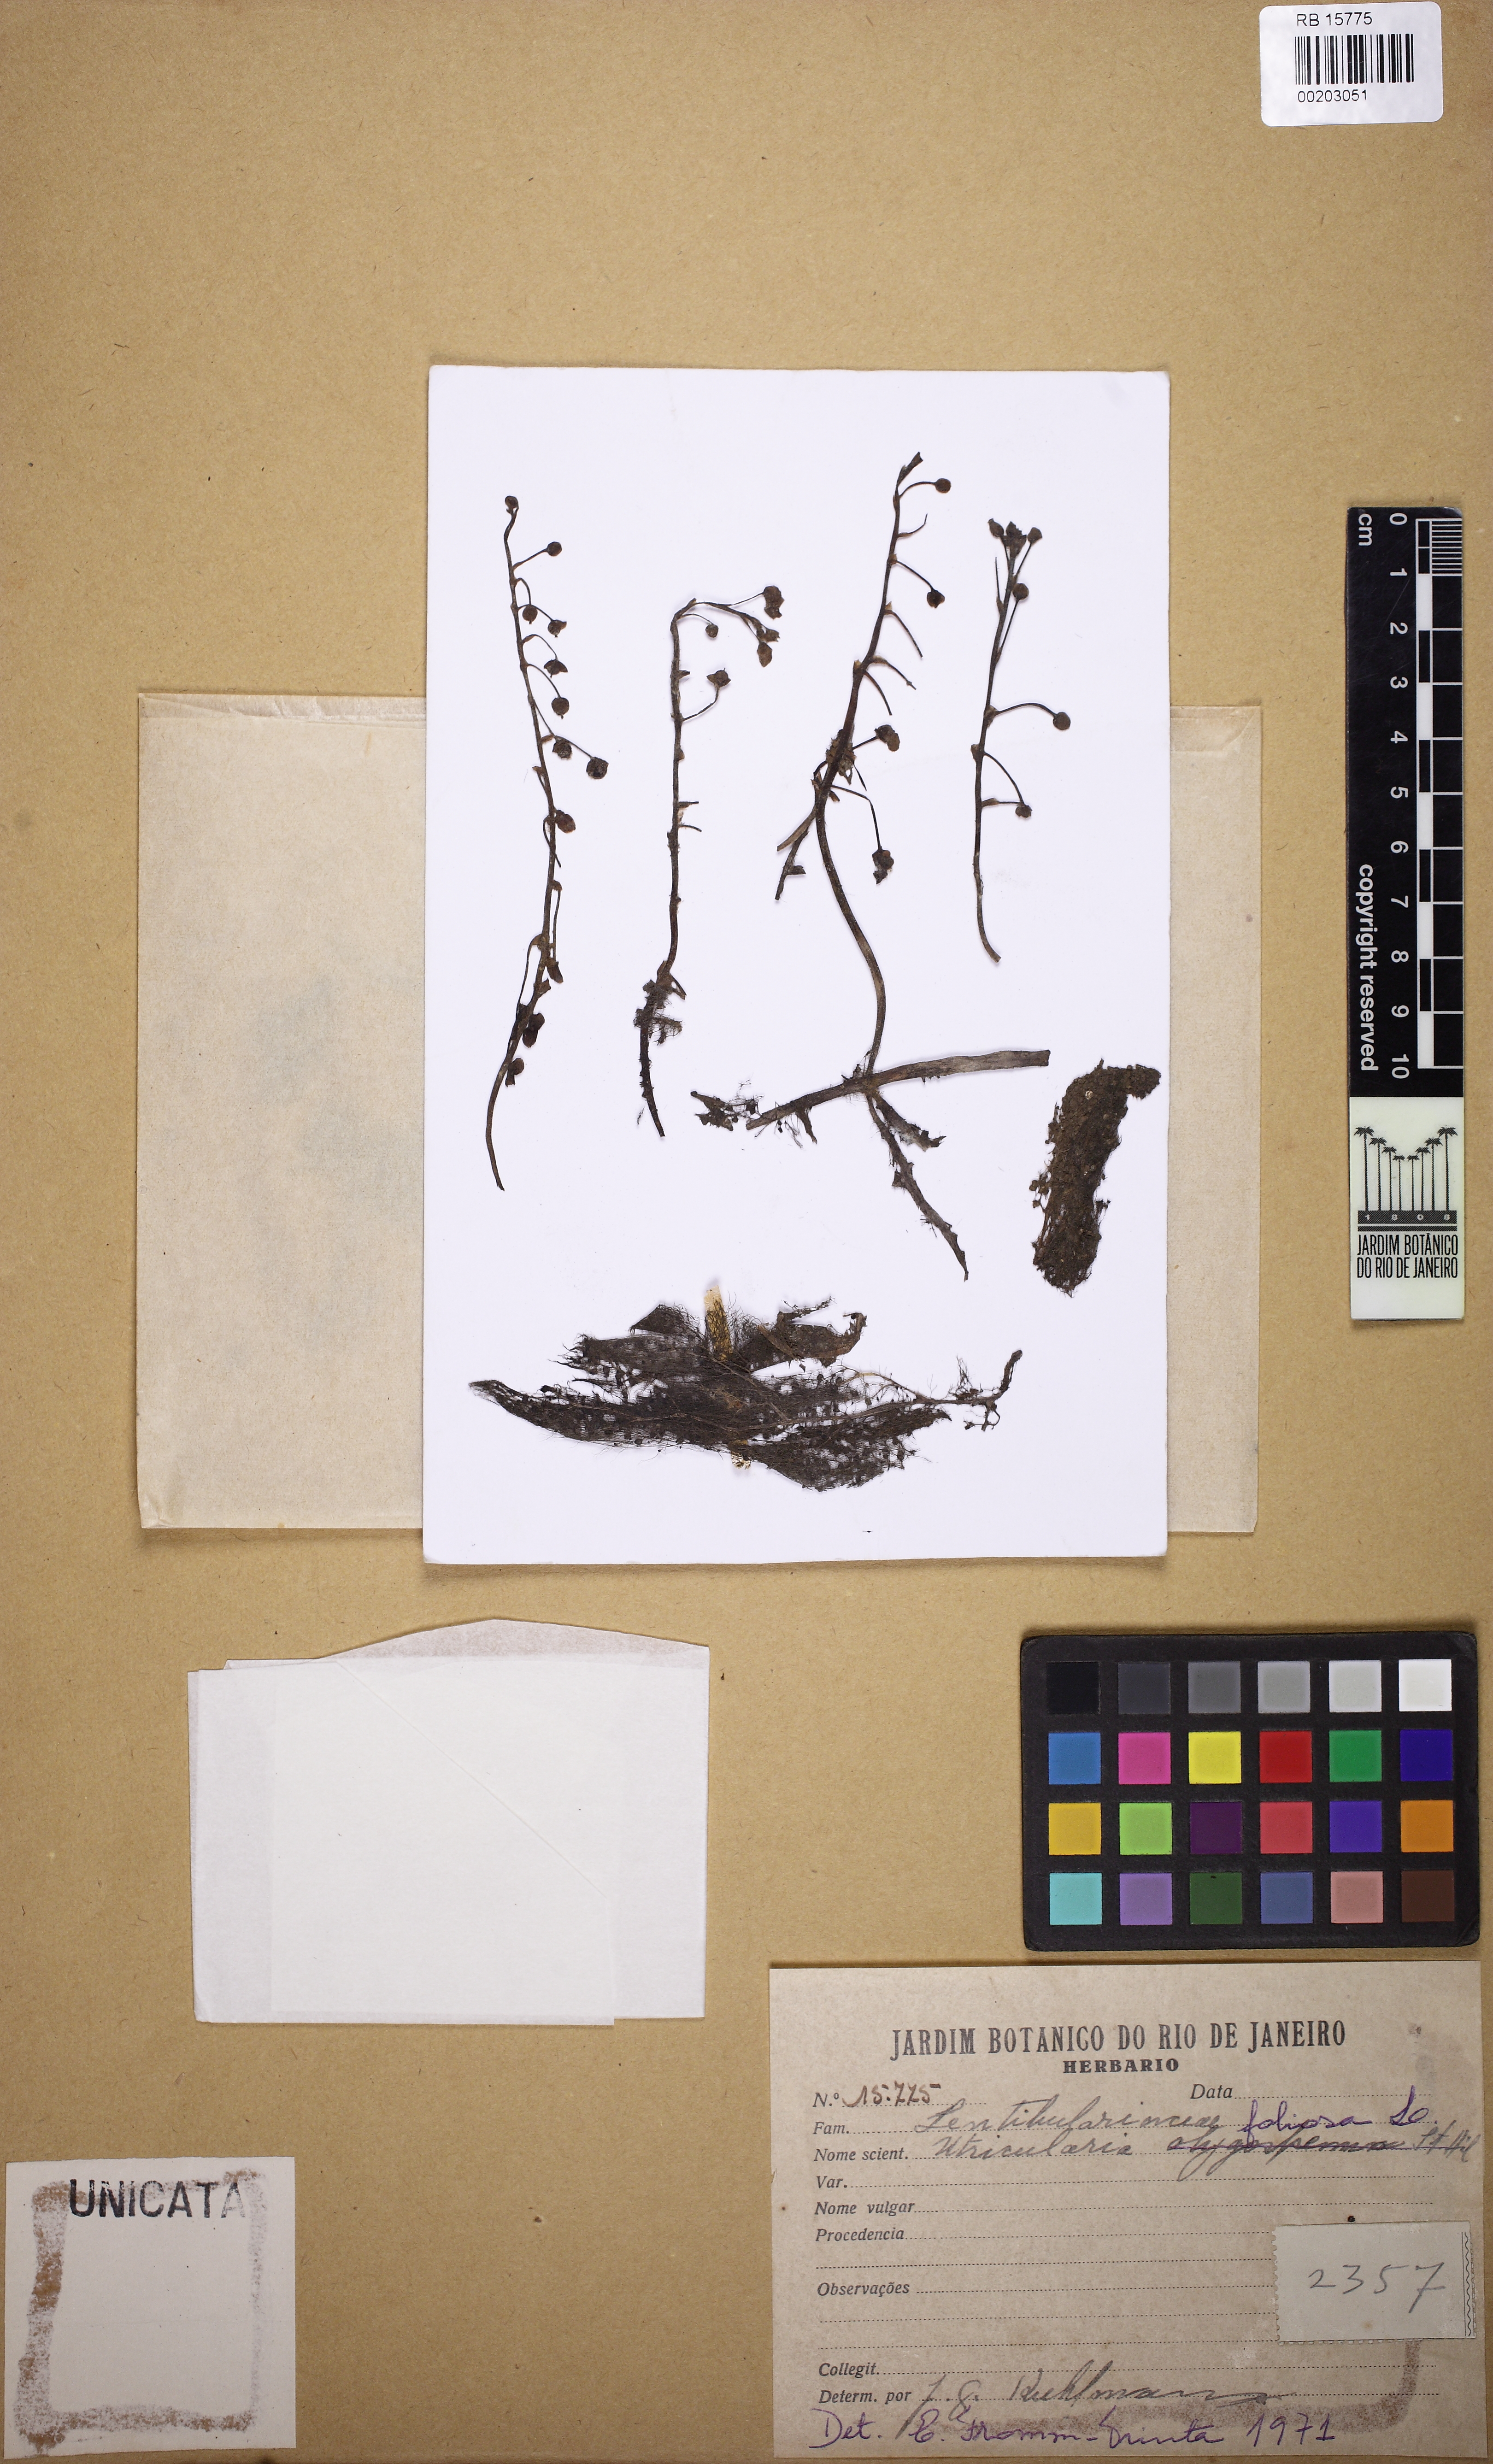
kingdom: Plantae
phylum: Tracheophyta
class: Magnoliopsida
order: Lamiales
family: Lentibulariaceae
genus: Utricularia
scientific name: Utricularia foliosa
